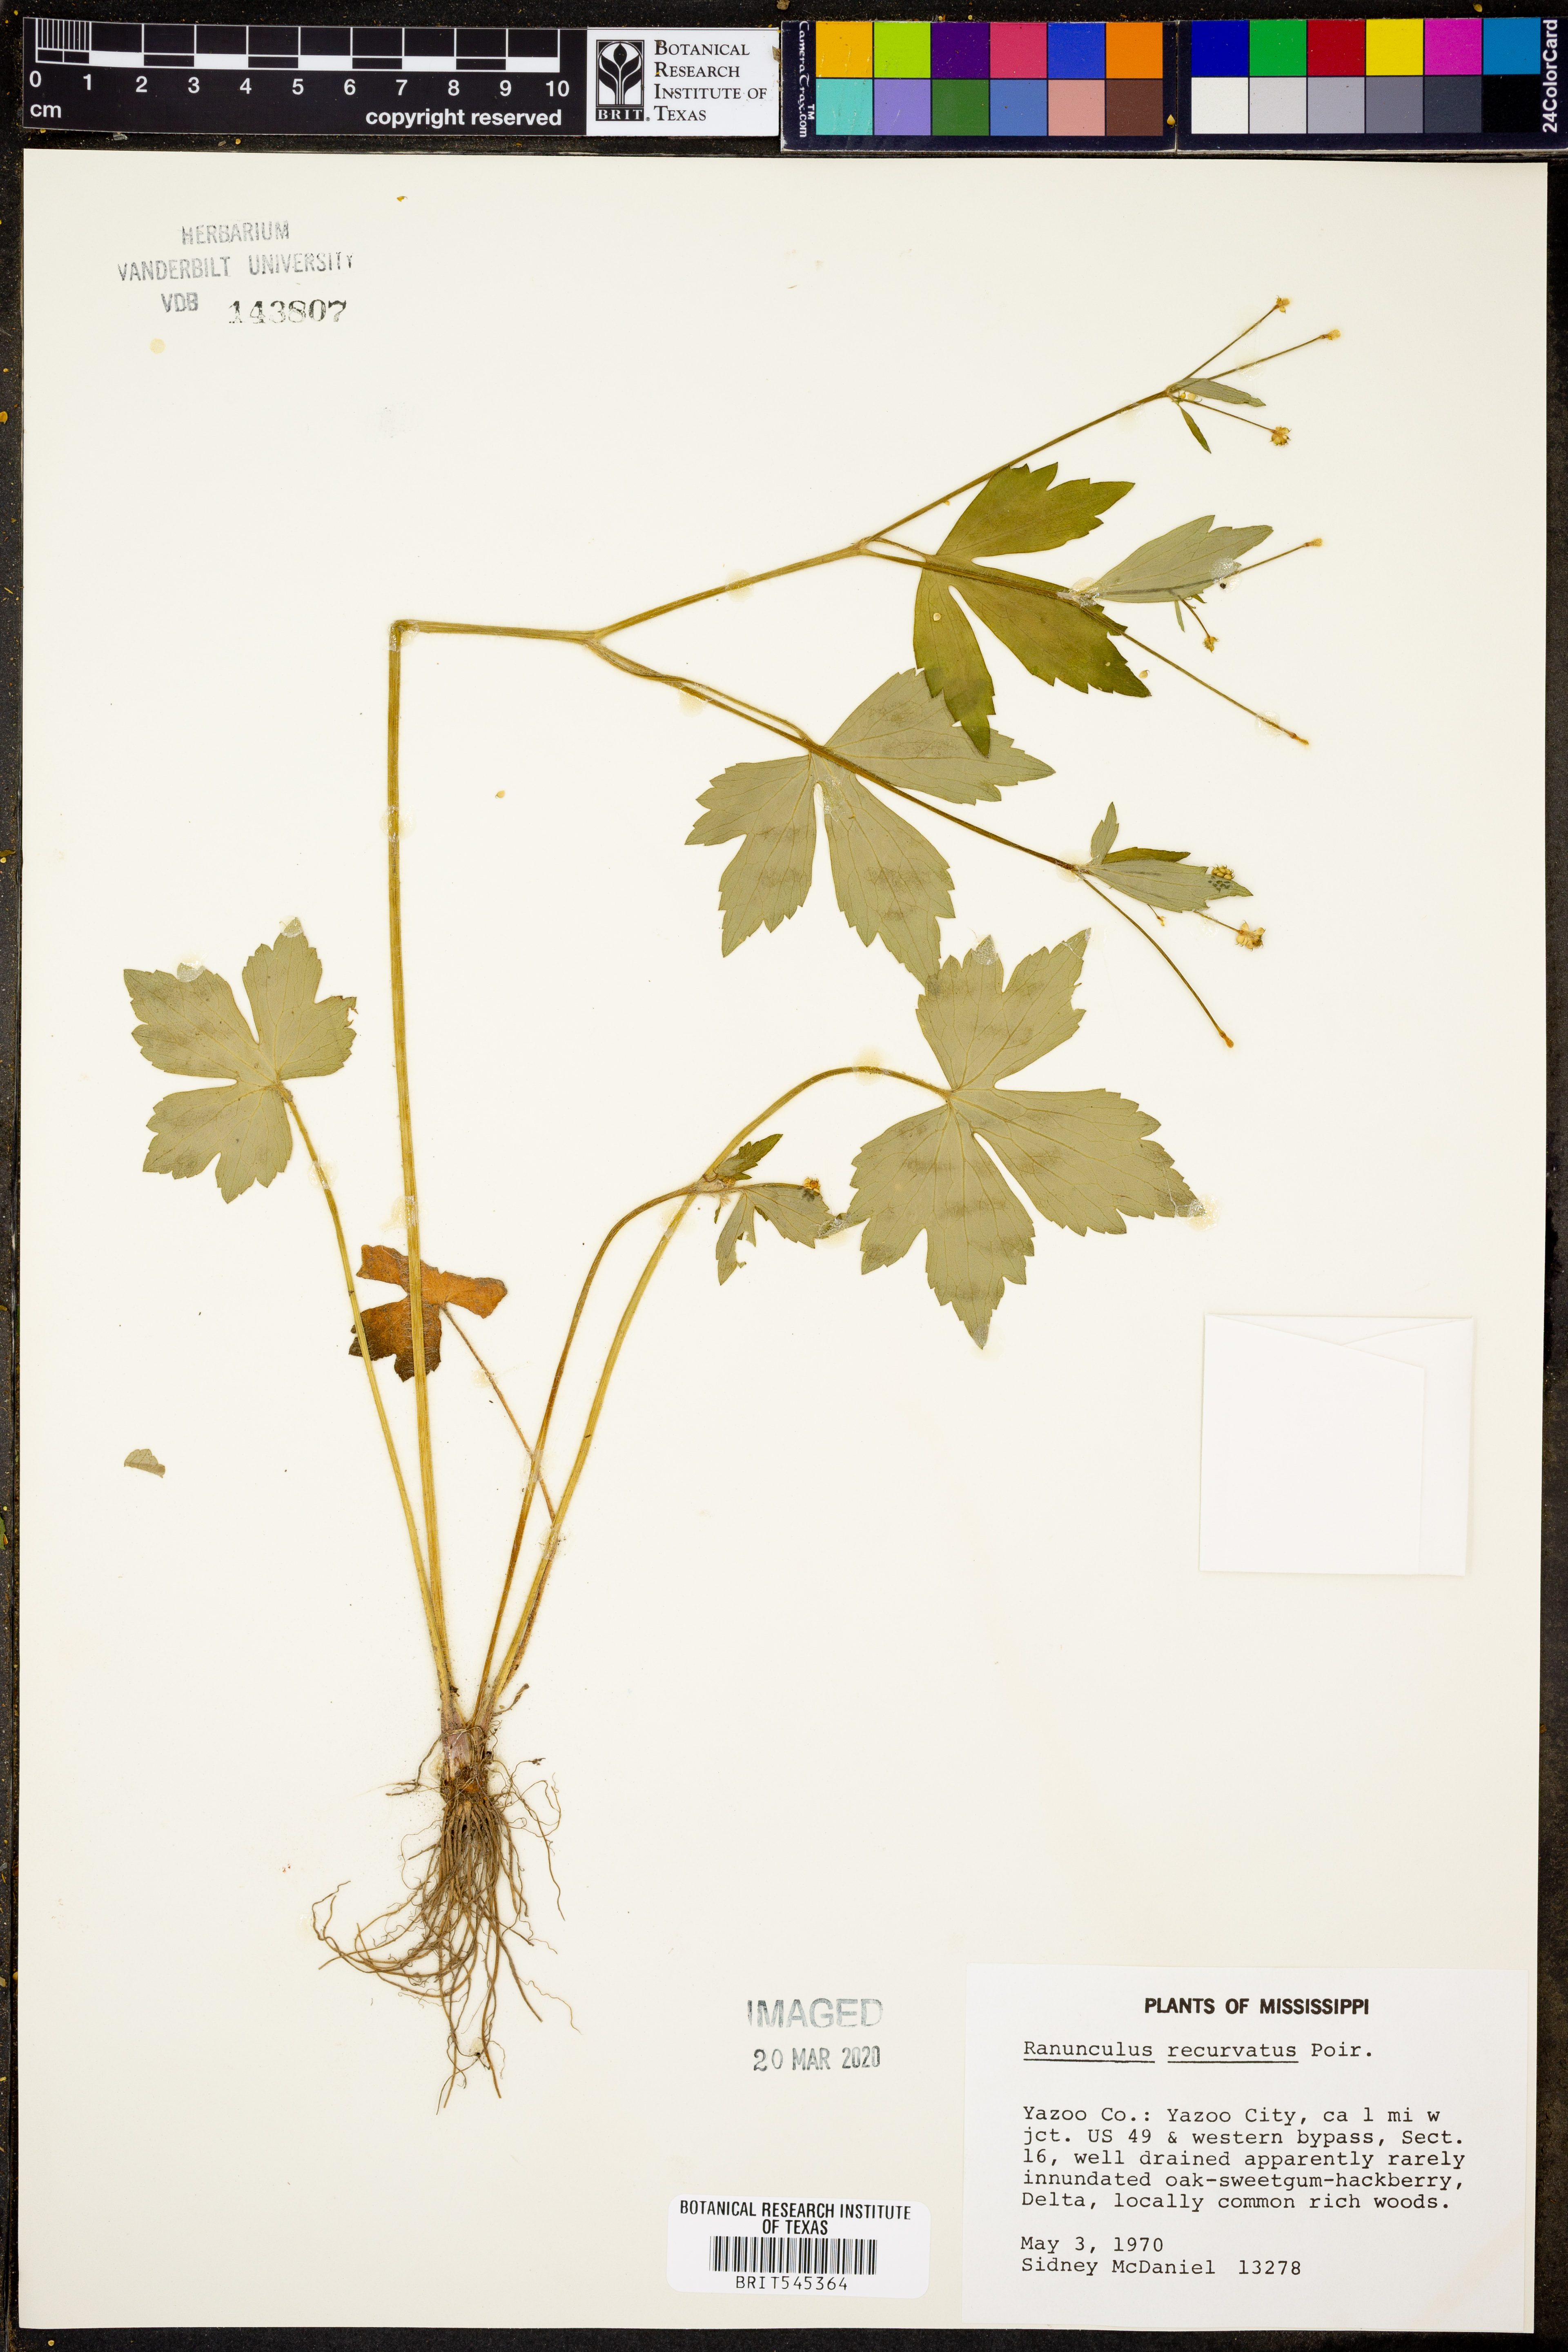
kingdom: Plantae
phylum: Tracheophyta
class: Magnoliopsida
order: Ranunculales
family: Ranunculaceae
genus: Ranunculus
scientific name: Ranunculus recurvatus
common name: Blisterwort
